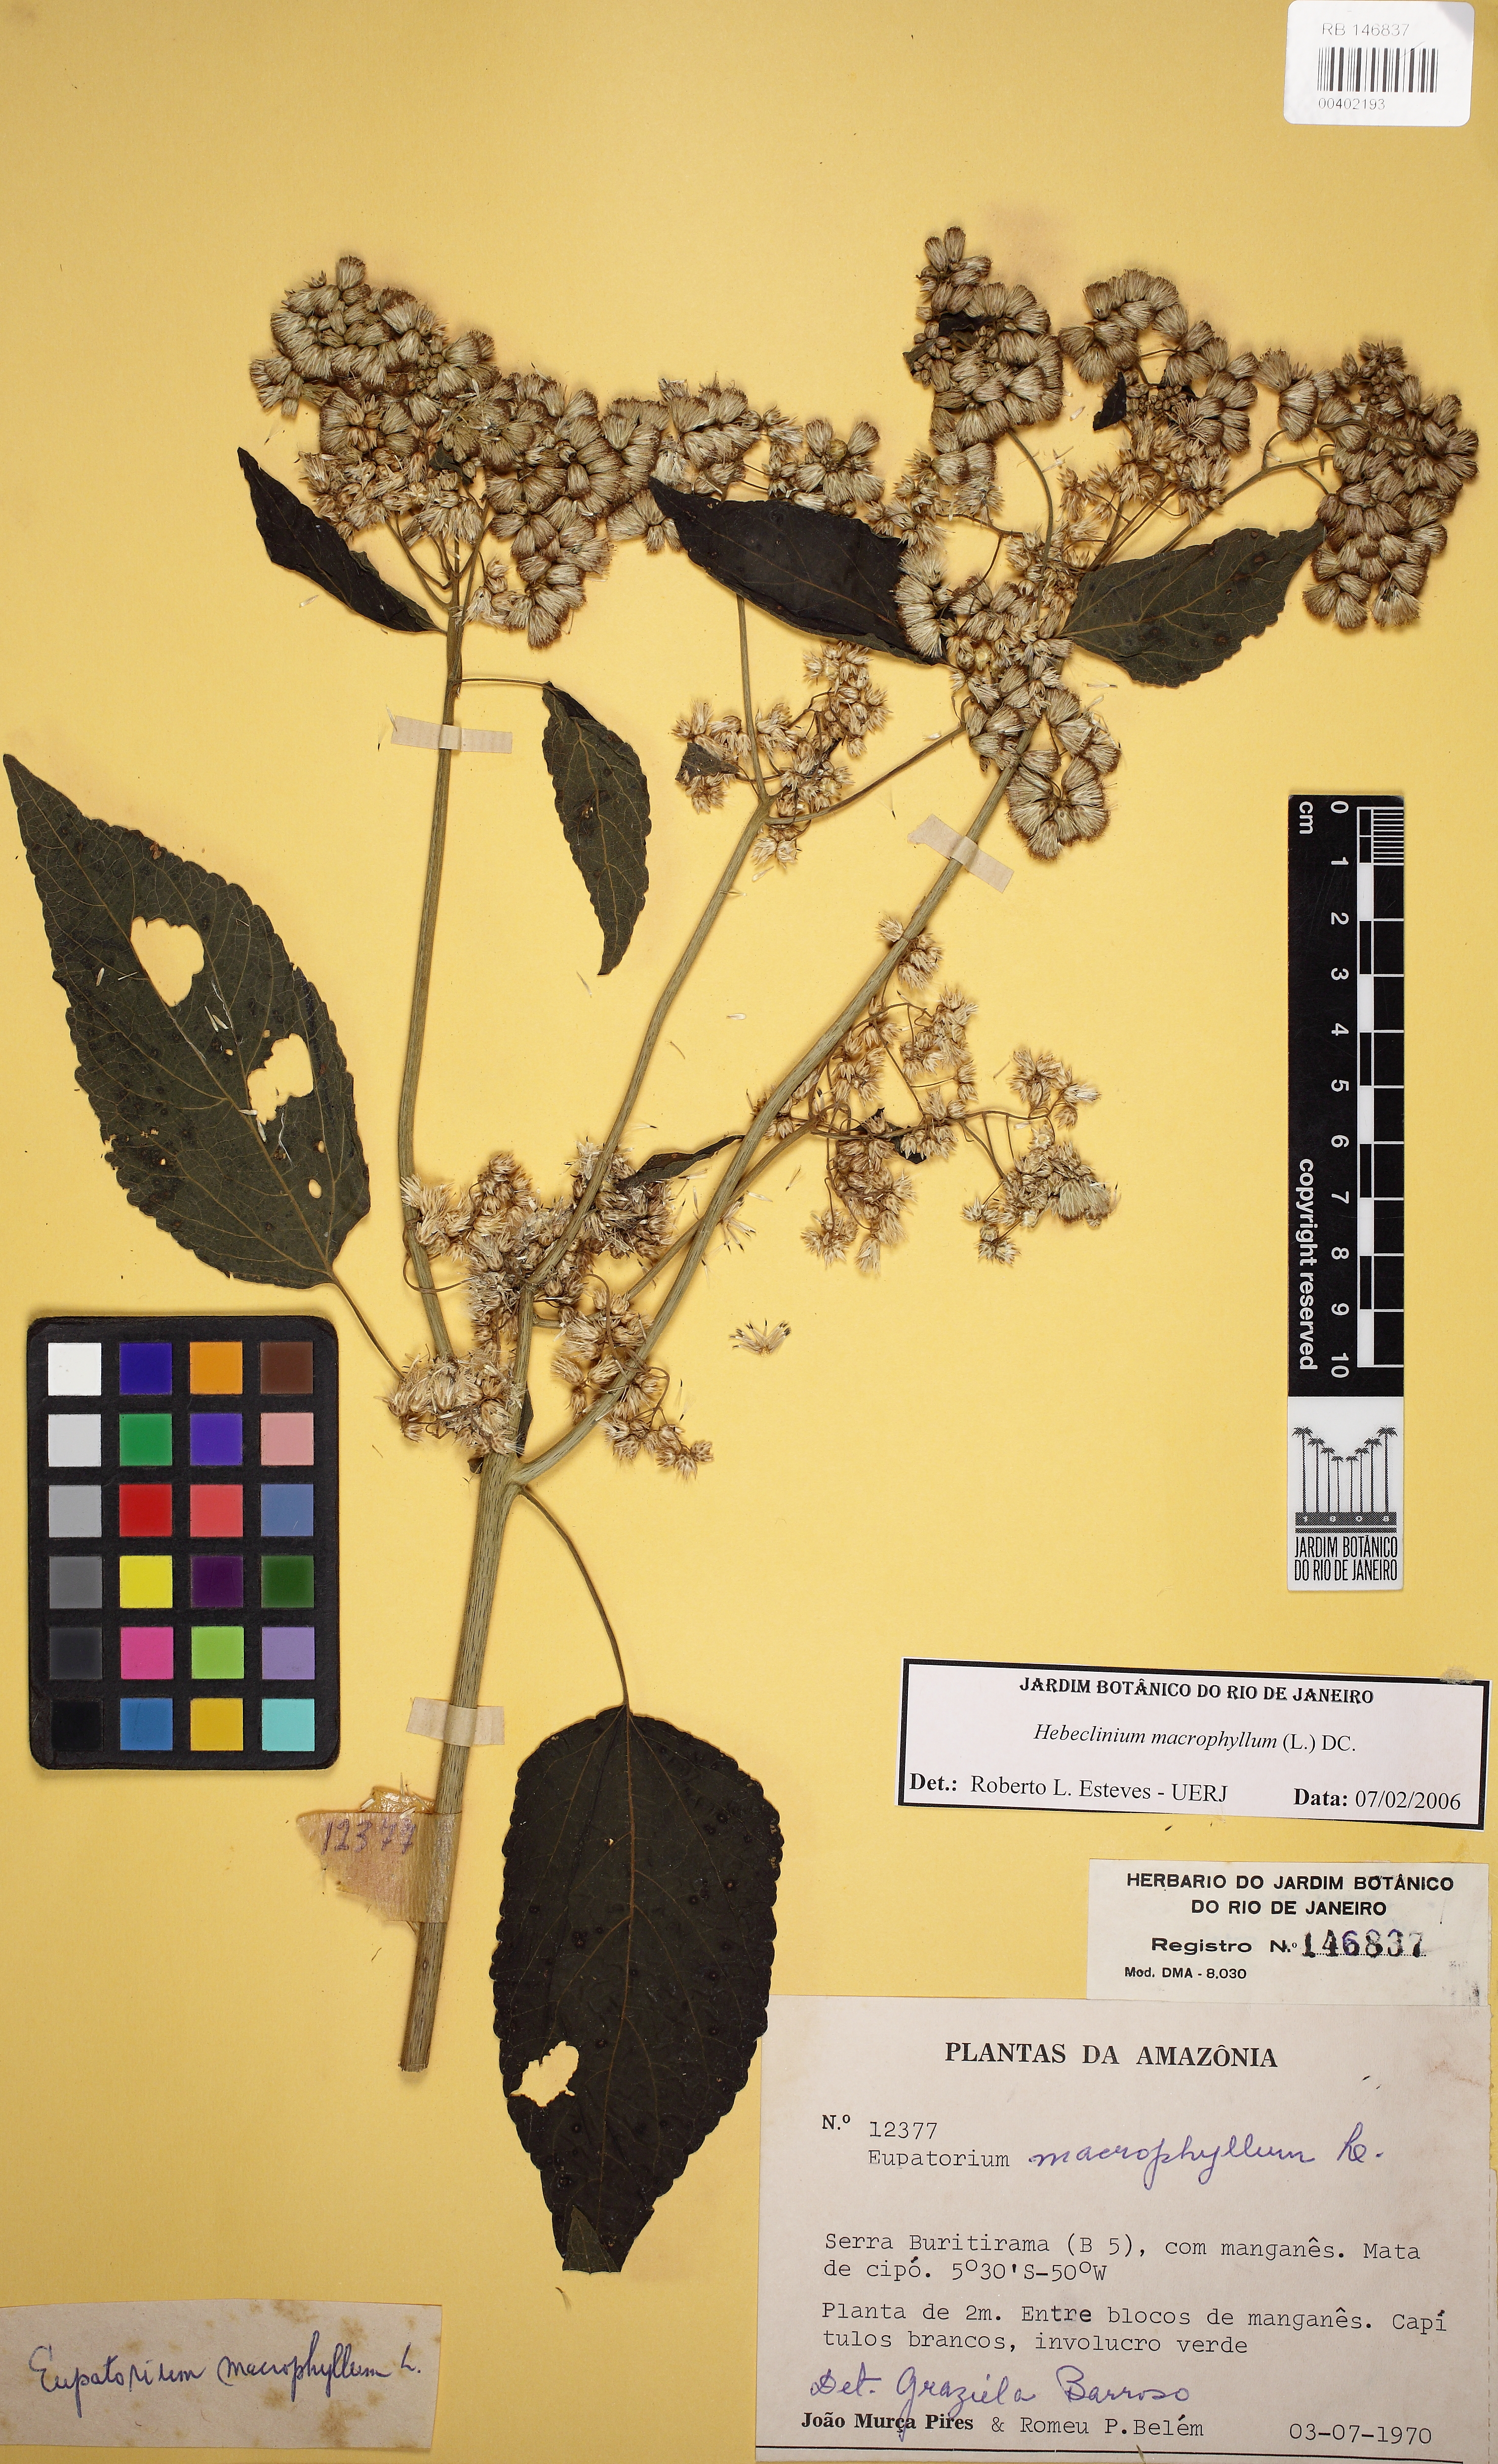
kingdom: Plantae
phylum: Tracheophyta
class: Magnoliopsida
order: Asterales
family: Asteraceae
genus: Hebeclinium
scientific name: Hebeclinium macrophyllum
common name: Largeleaf thoroughwort
